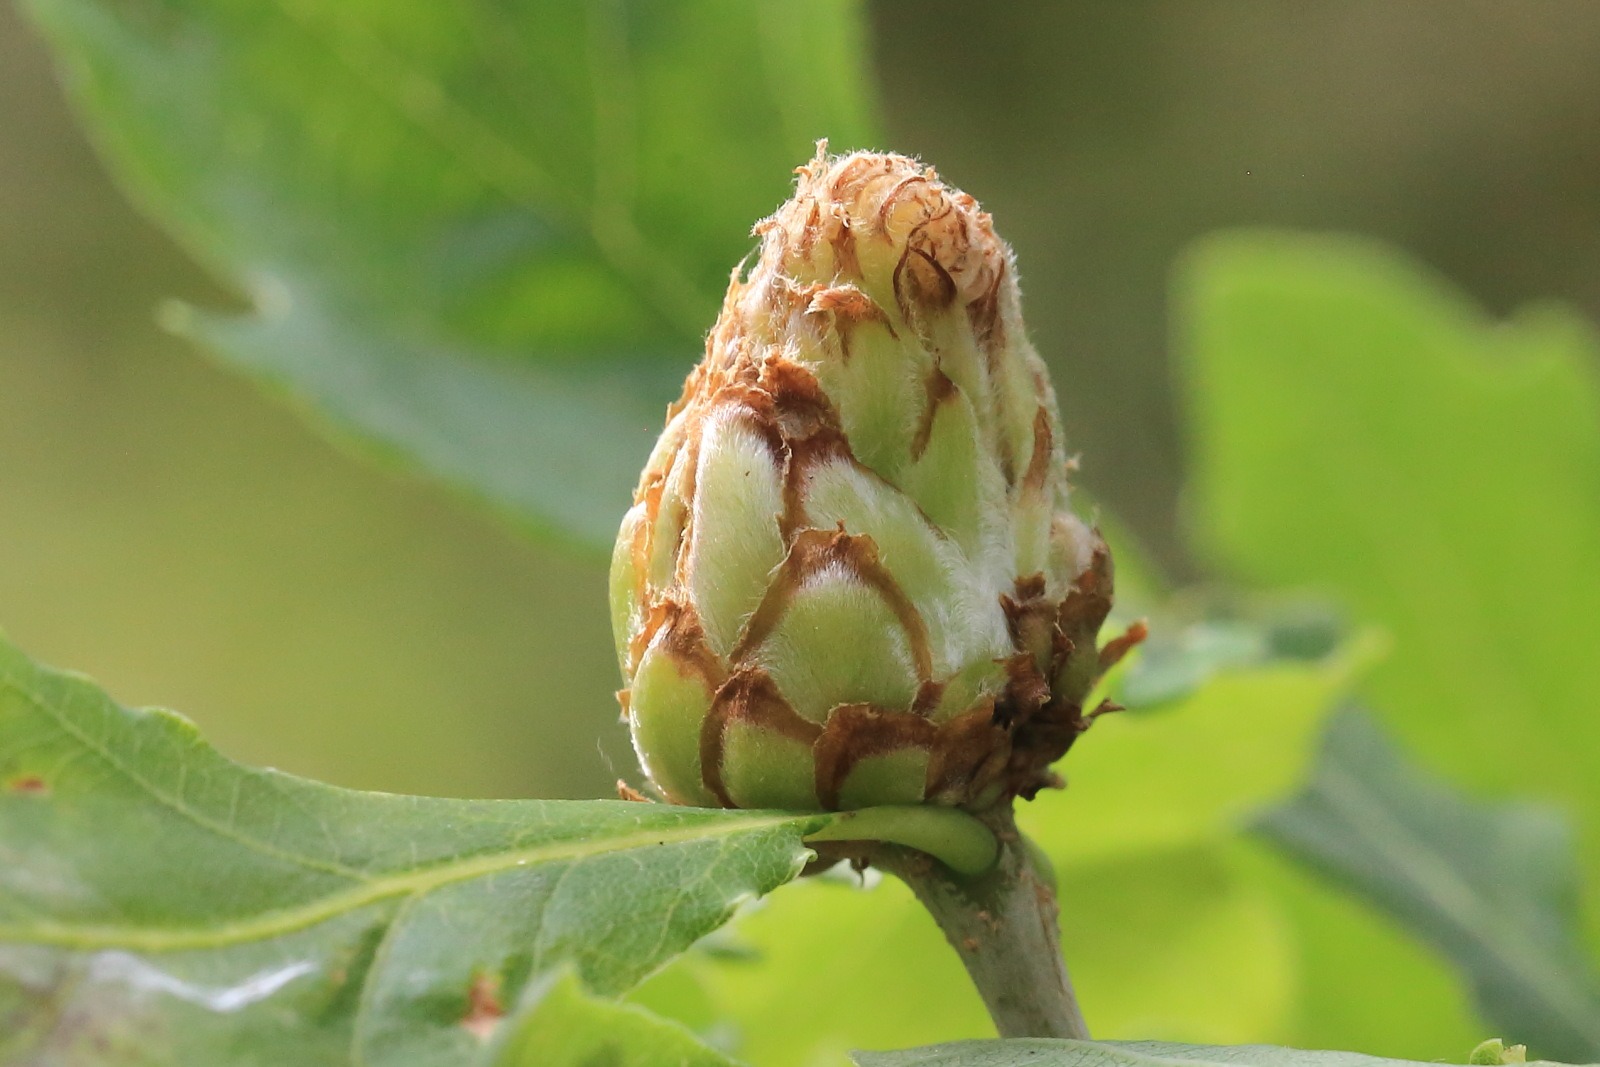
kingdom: Animalia
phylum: Arthropoda
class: Insecta
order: Hymenoptera
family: Cynipidae
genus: Andricus
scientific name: Andricus foecundatrix
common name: Artiskokgalhveps
